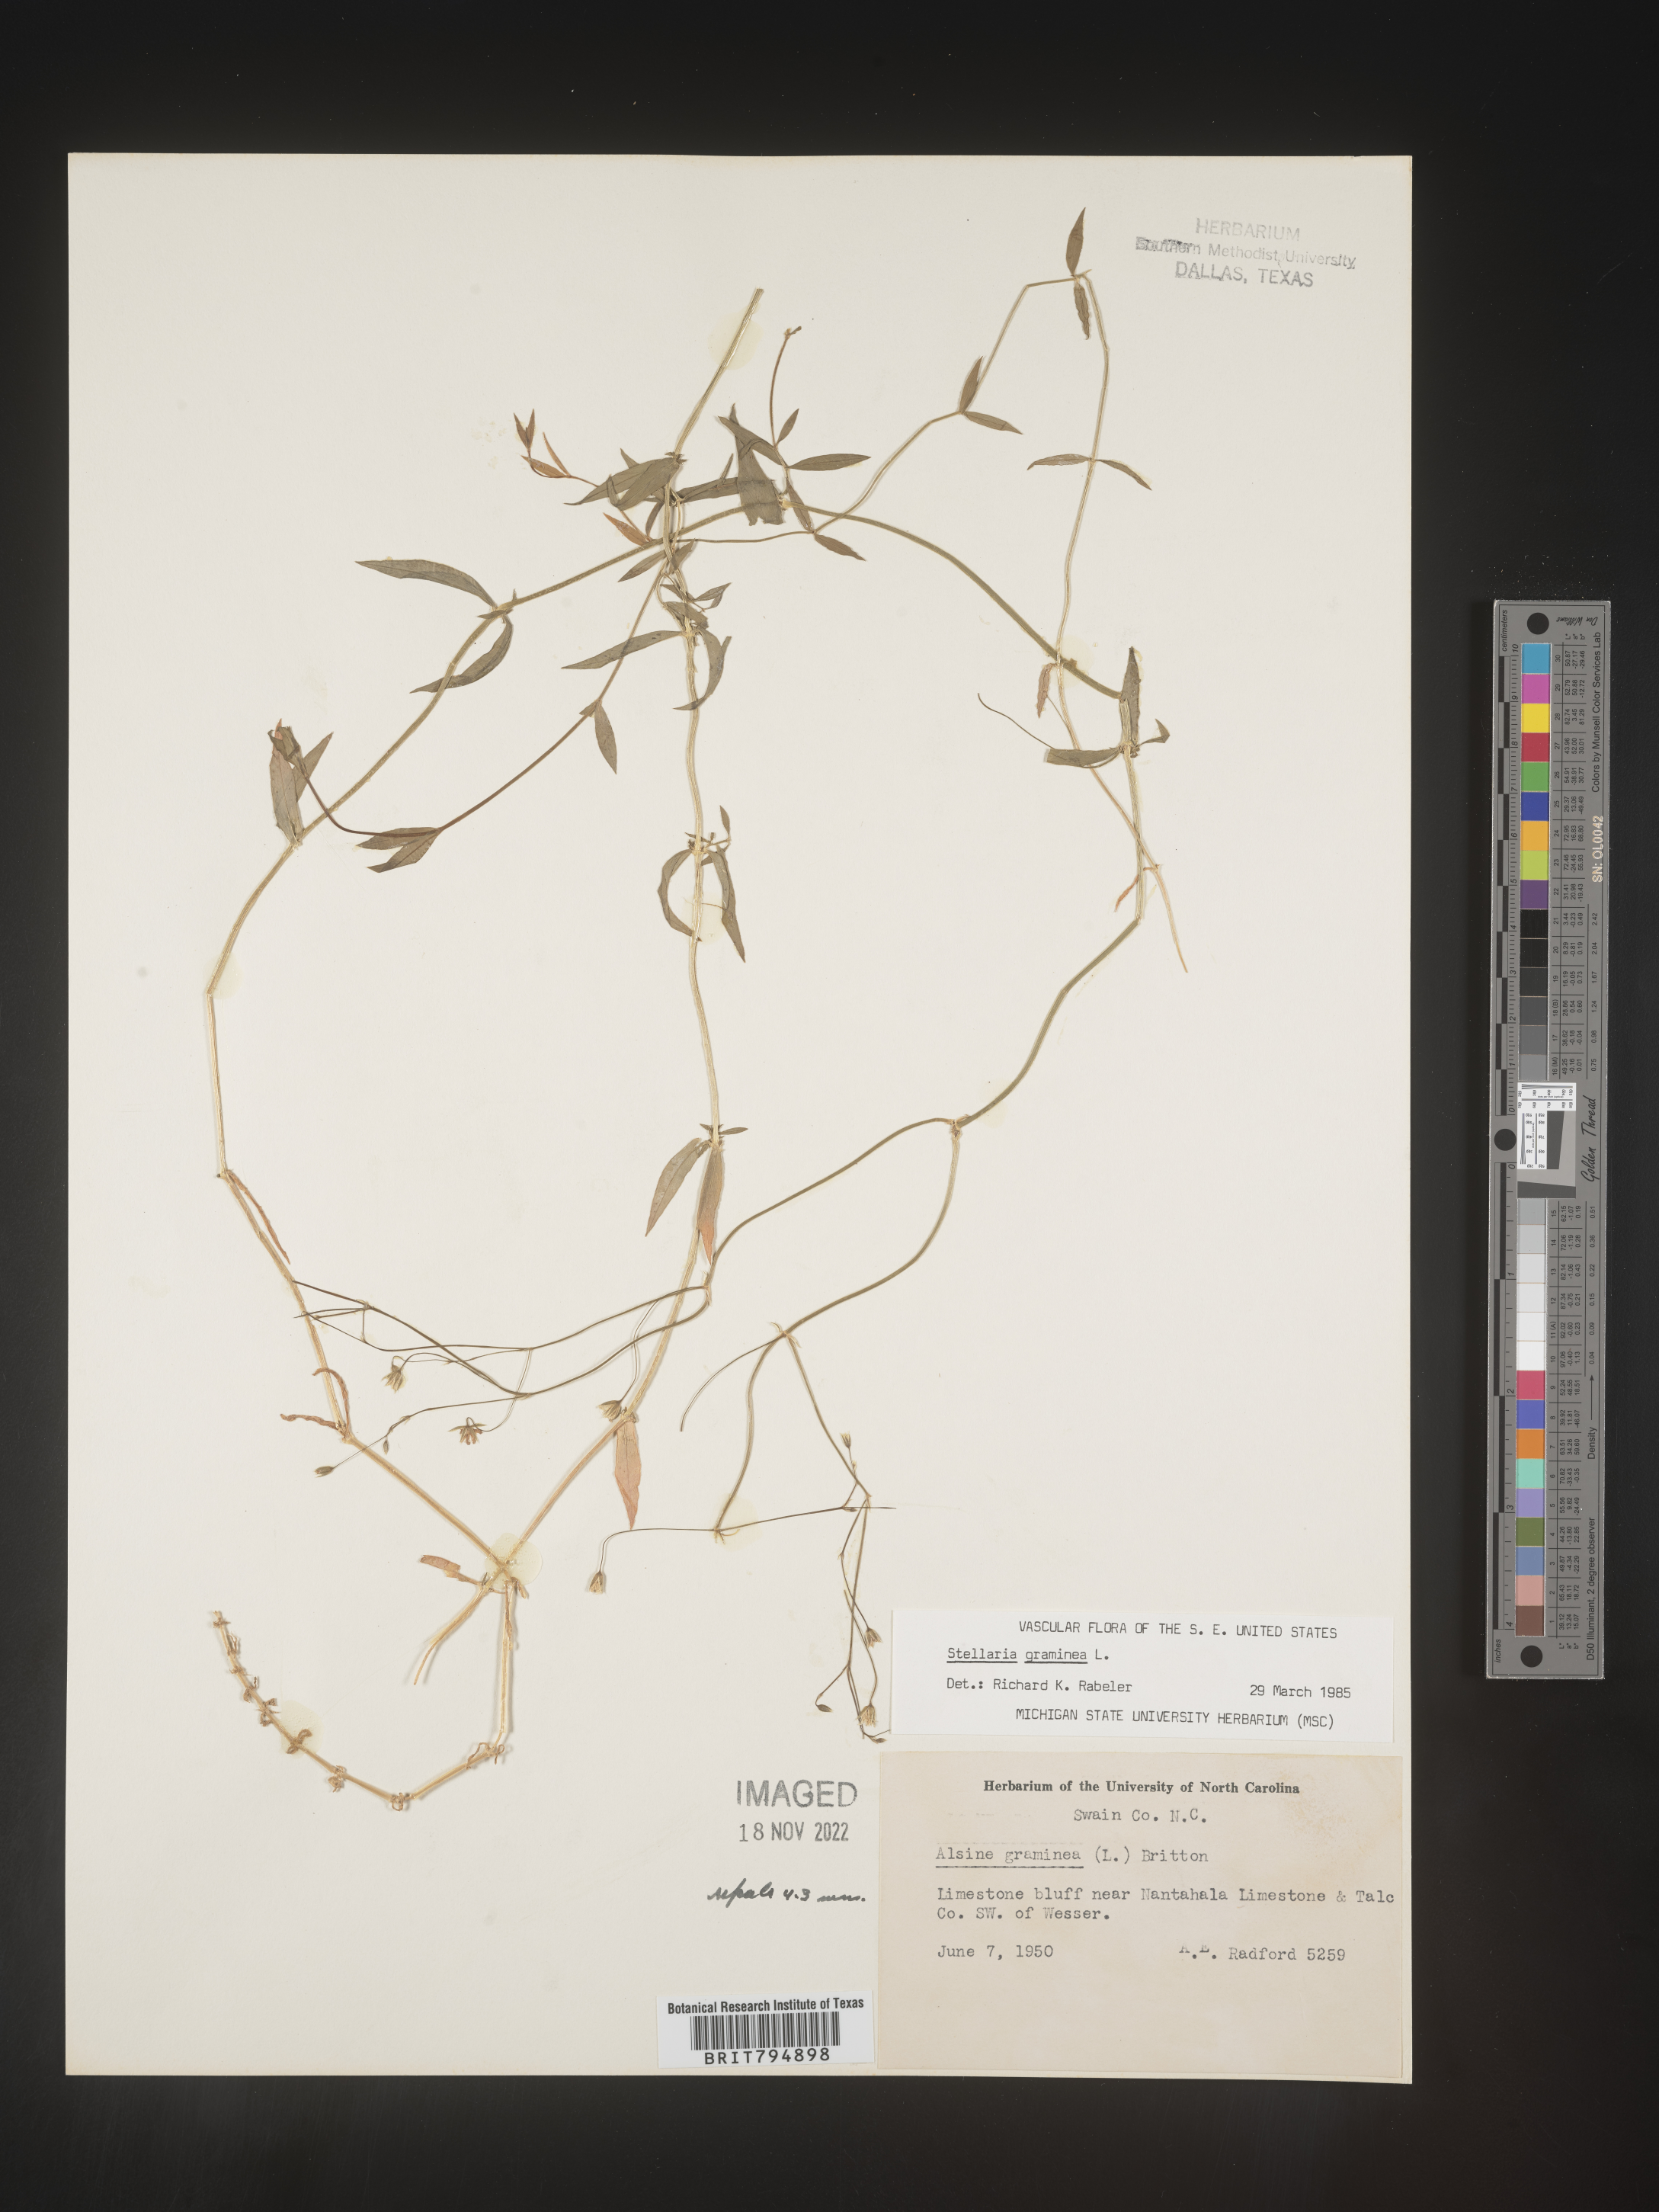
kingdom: Plantae
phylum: Tracheophyta
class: Magnoliopsida
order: Caryophyllales
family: Caryophyllaceae
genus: Stellaria
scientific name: Stellaria graminea
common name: Grass-like starwort
